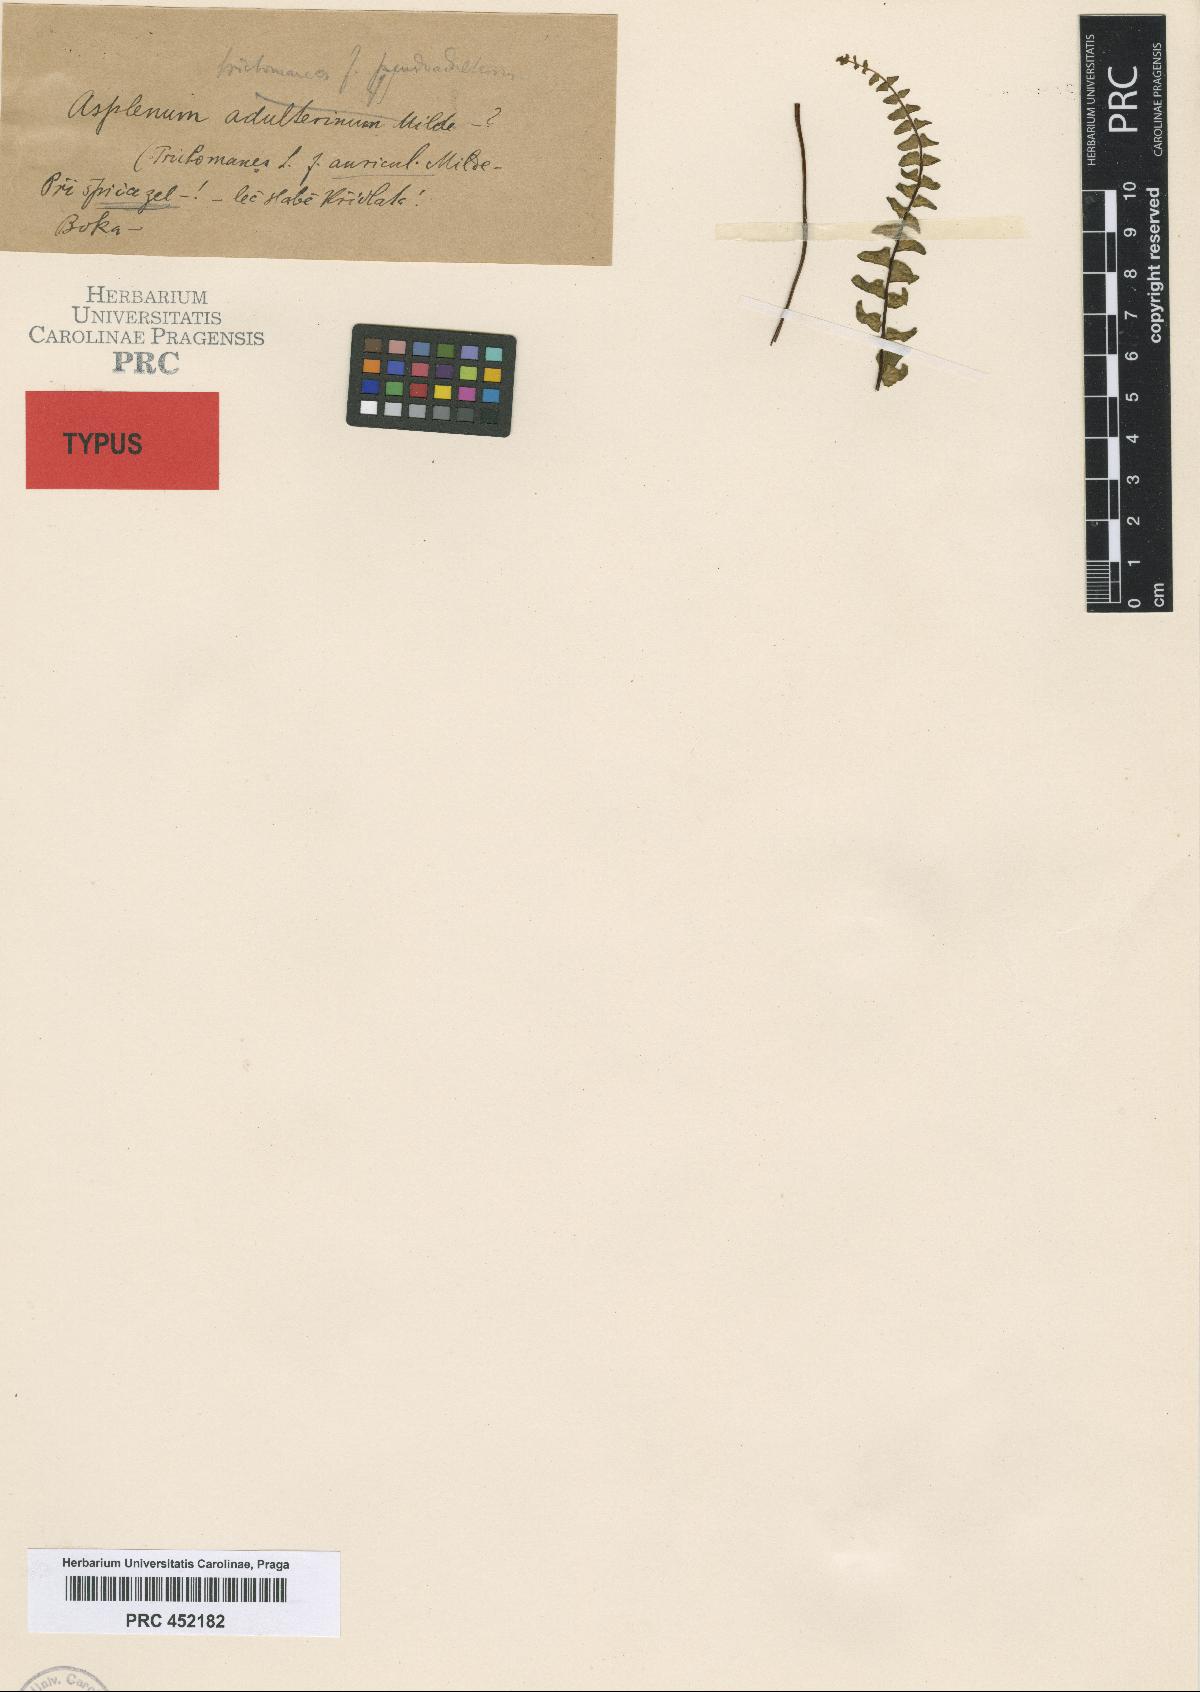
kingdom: Plantae
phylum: Tracheophyta
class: Polypodiopsida
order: Polypodiales
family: Aspleniaceae
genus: Asplenium
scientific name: Asplenium trichomanes
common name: Maidenhair spleenwort
